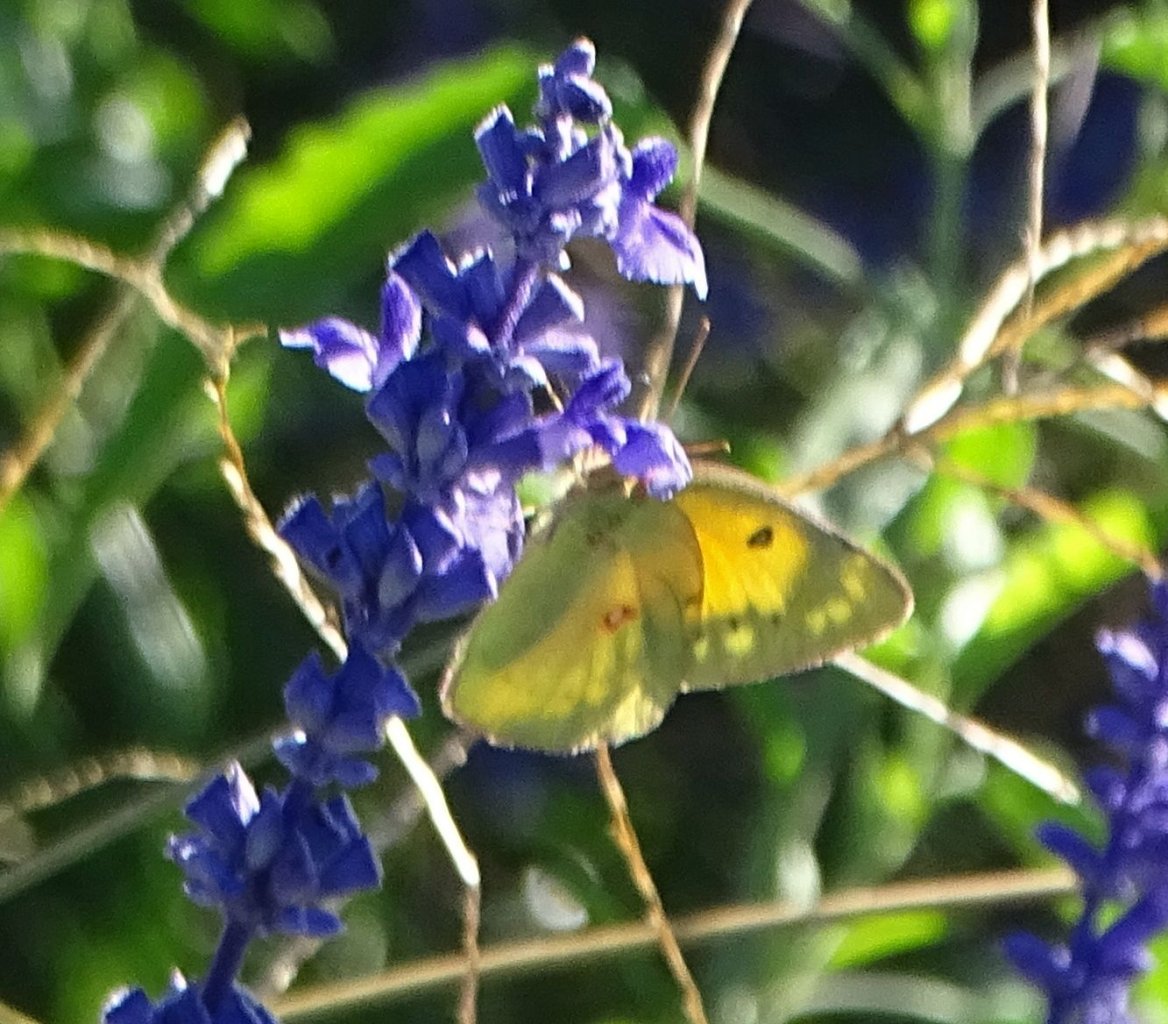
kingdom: Animalia
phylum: Arthropoda
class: Insecta
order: Lepidoptera
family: Pieridae
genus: Colias
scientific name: Colias eurytheme
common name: Orange Sulphur
